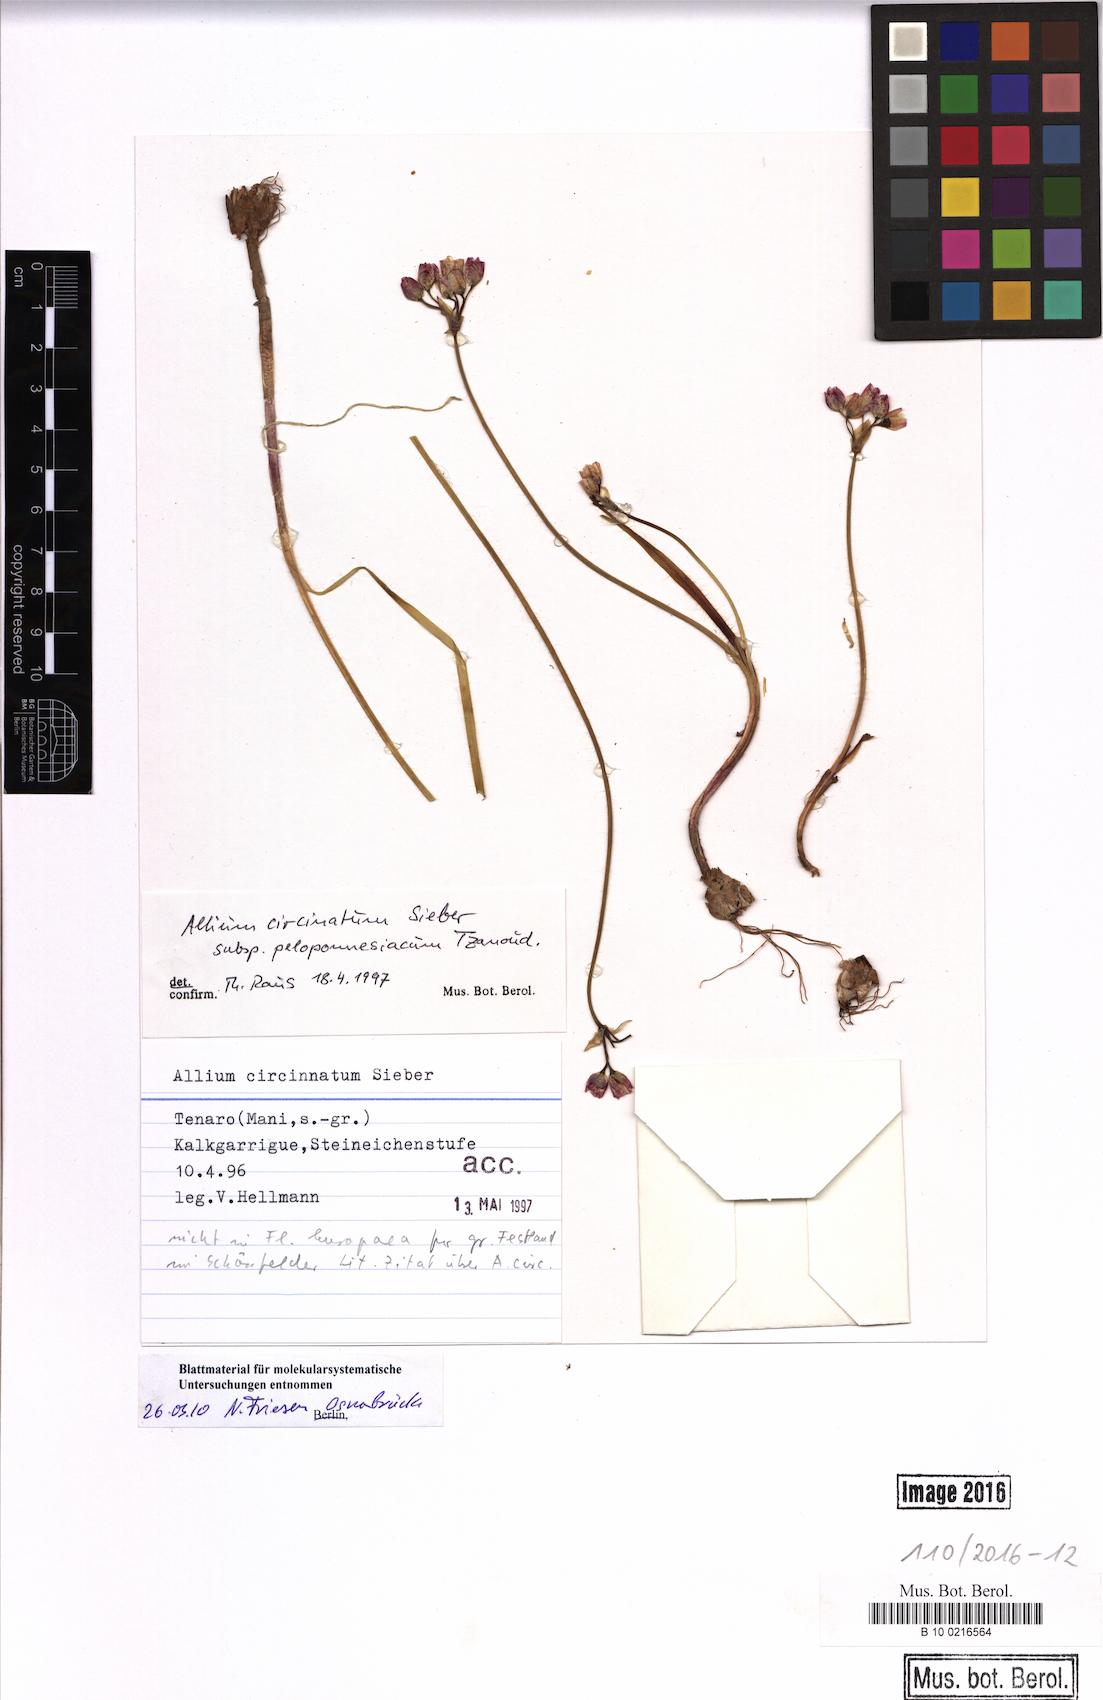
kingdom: Plantae
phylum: Tracheophyta
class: Liliopsida
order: Asparagales
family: Amaryllidaceae
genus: Allium
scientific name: Allium circinnatum
